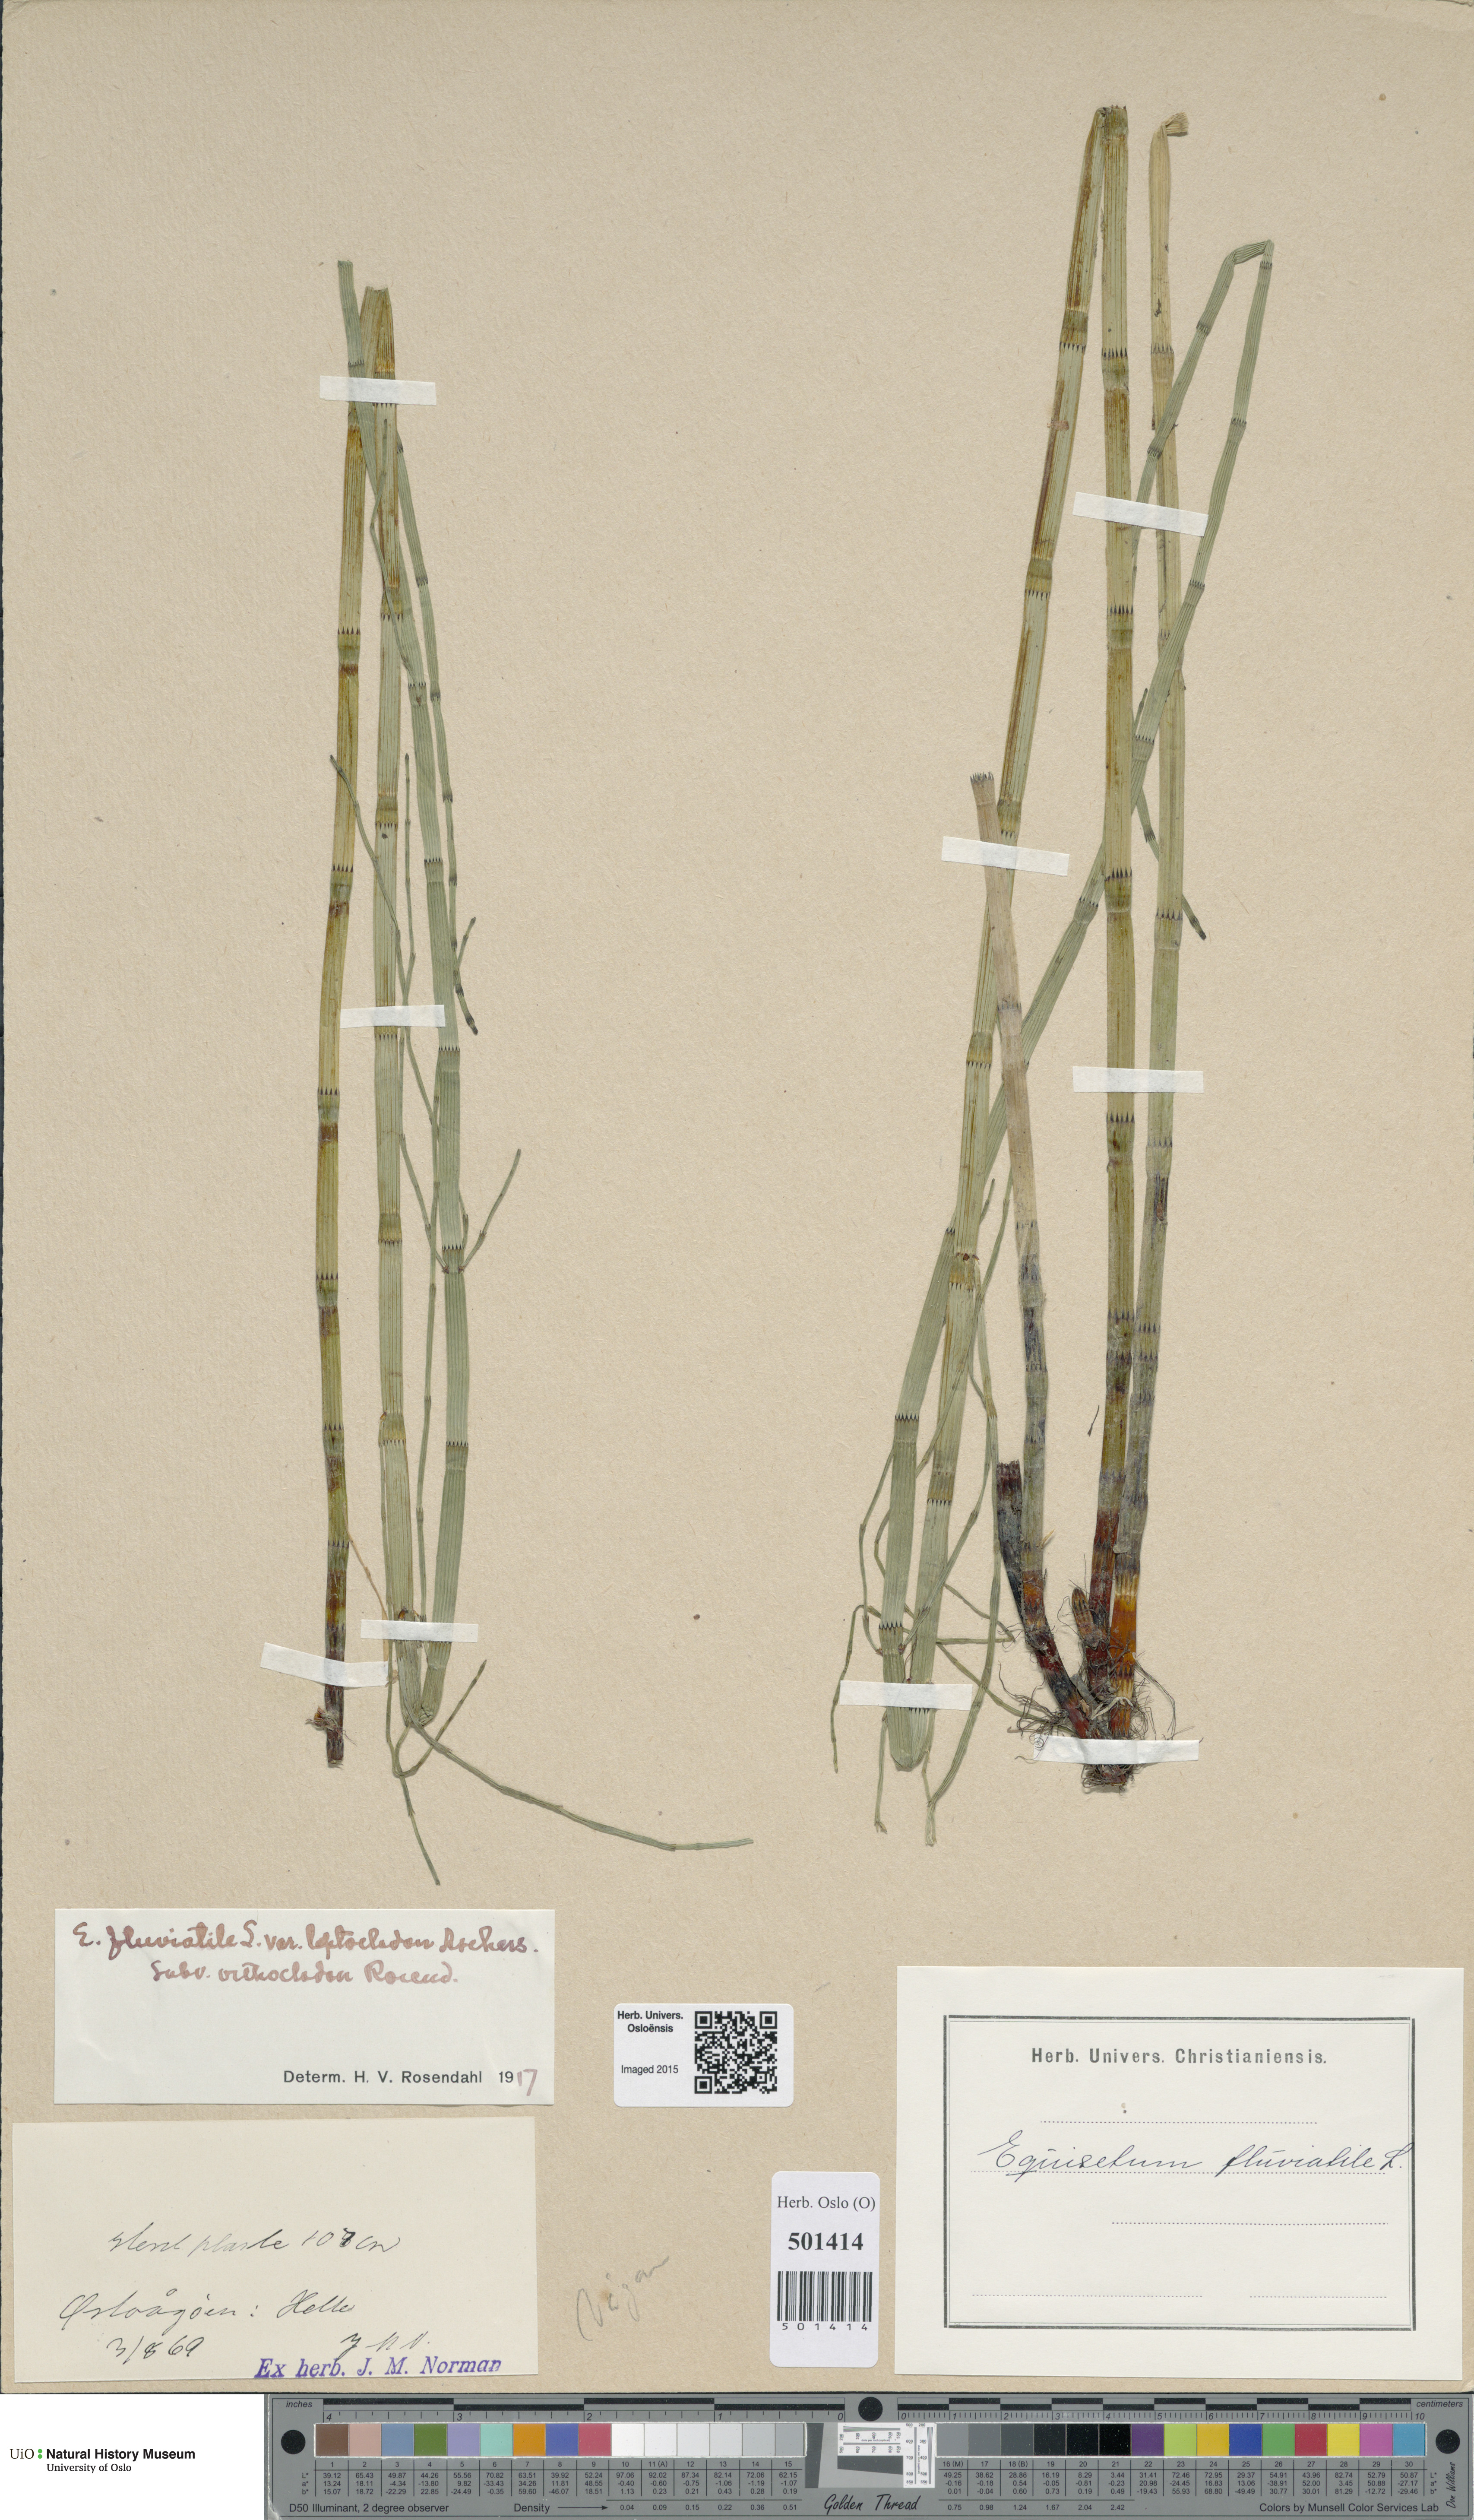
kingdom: Plantae
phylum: Tracheophyta
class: Polypodiopsida
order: Equisetales
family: Equisetaceae
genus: Equisetum
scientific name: Equisetum fluviatile
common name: Water horsetail
